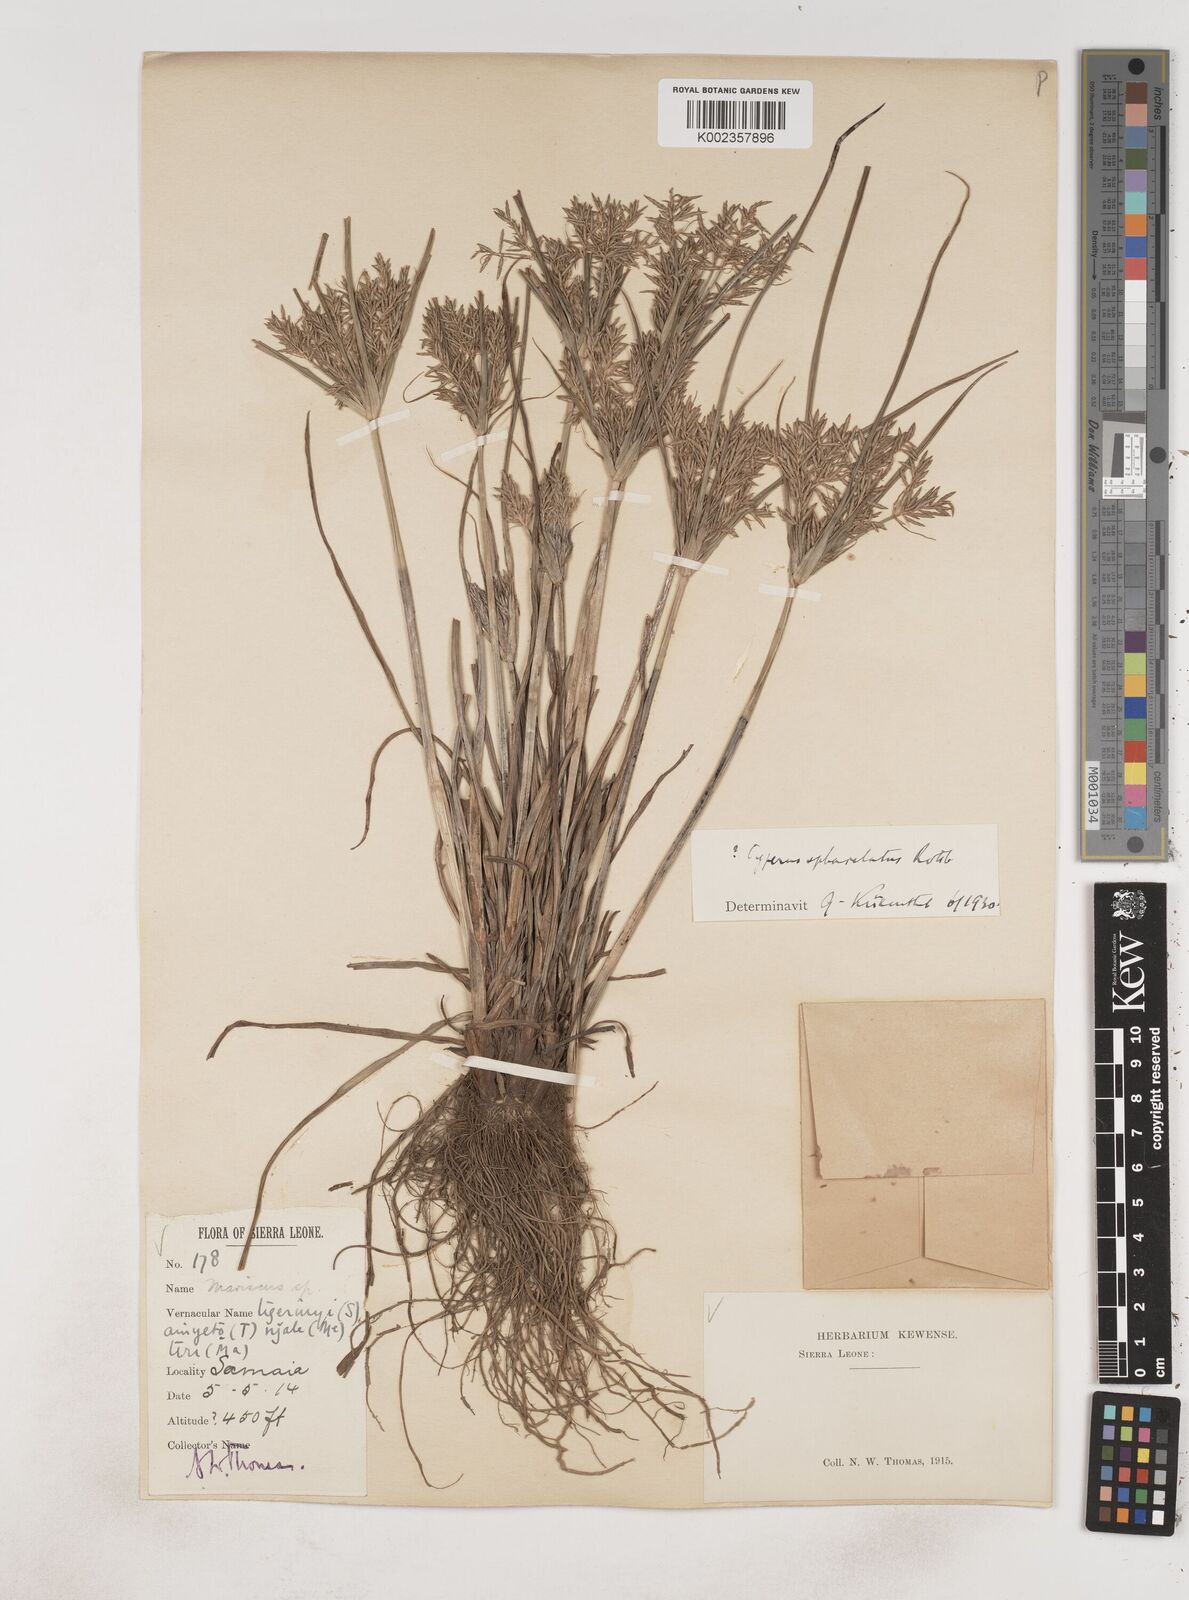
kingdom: Plantae
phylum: Tracheophyta
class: Liliopsida
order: Poales
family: Cyperaceae
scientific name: Cyperaceae
